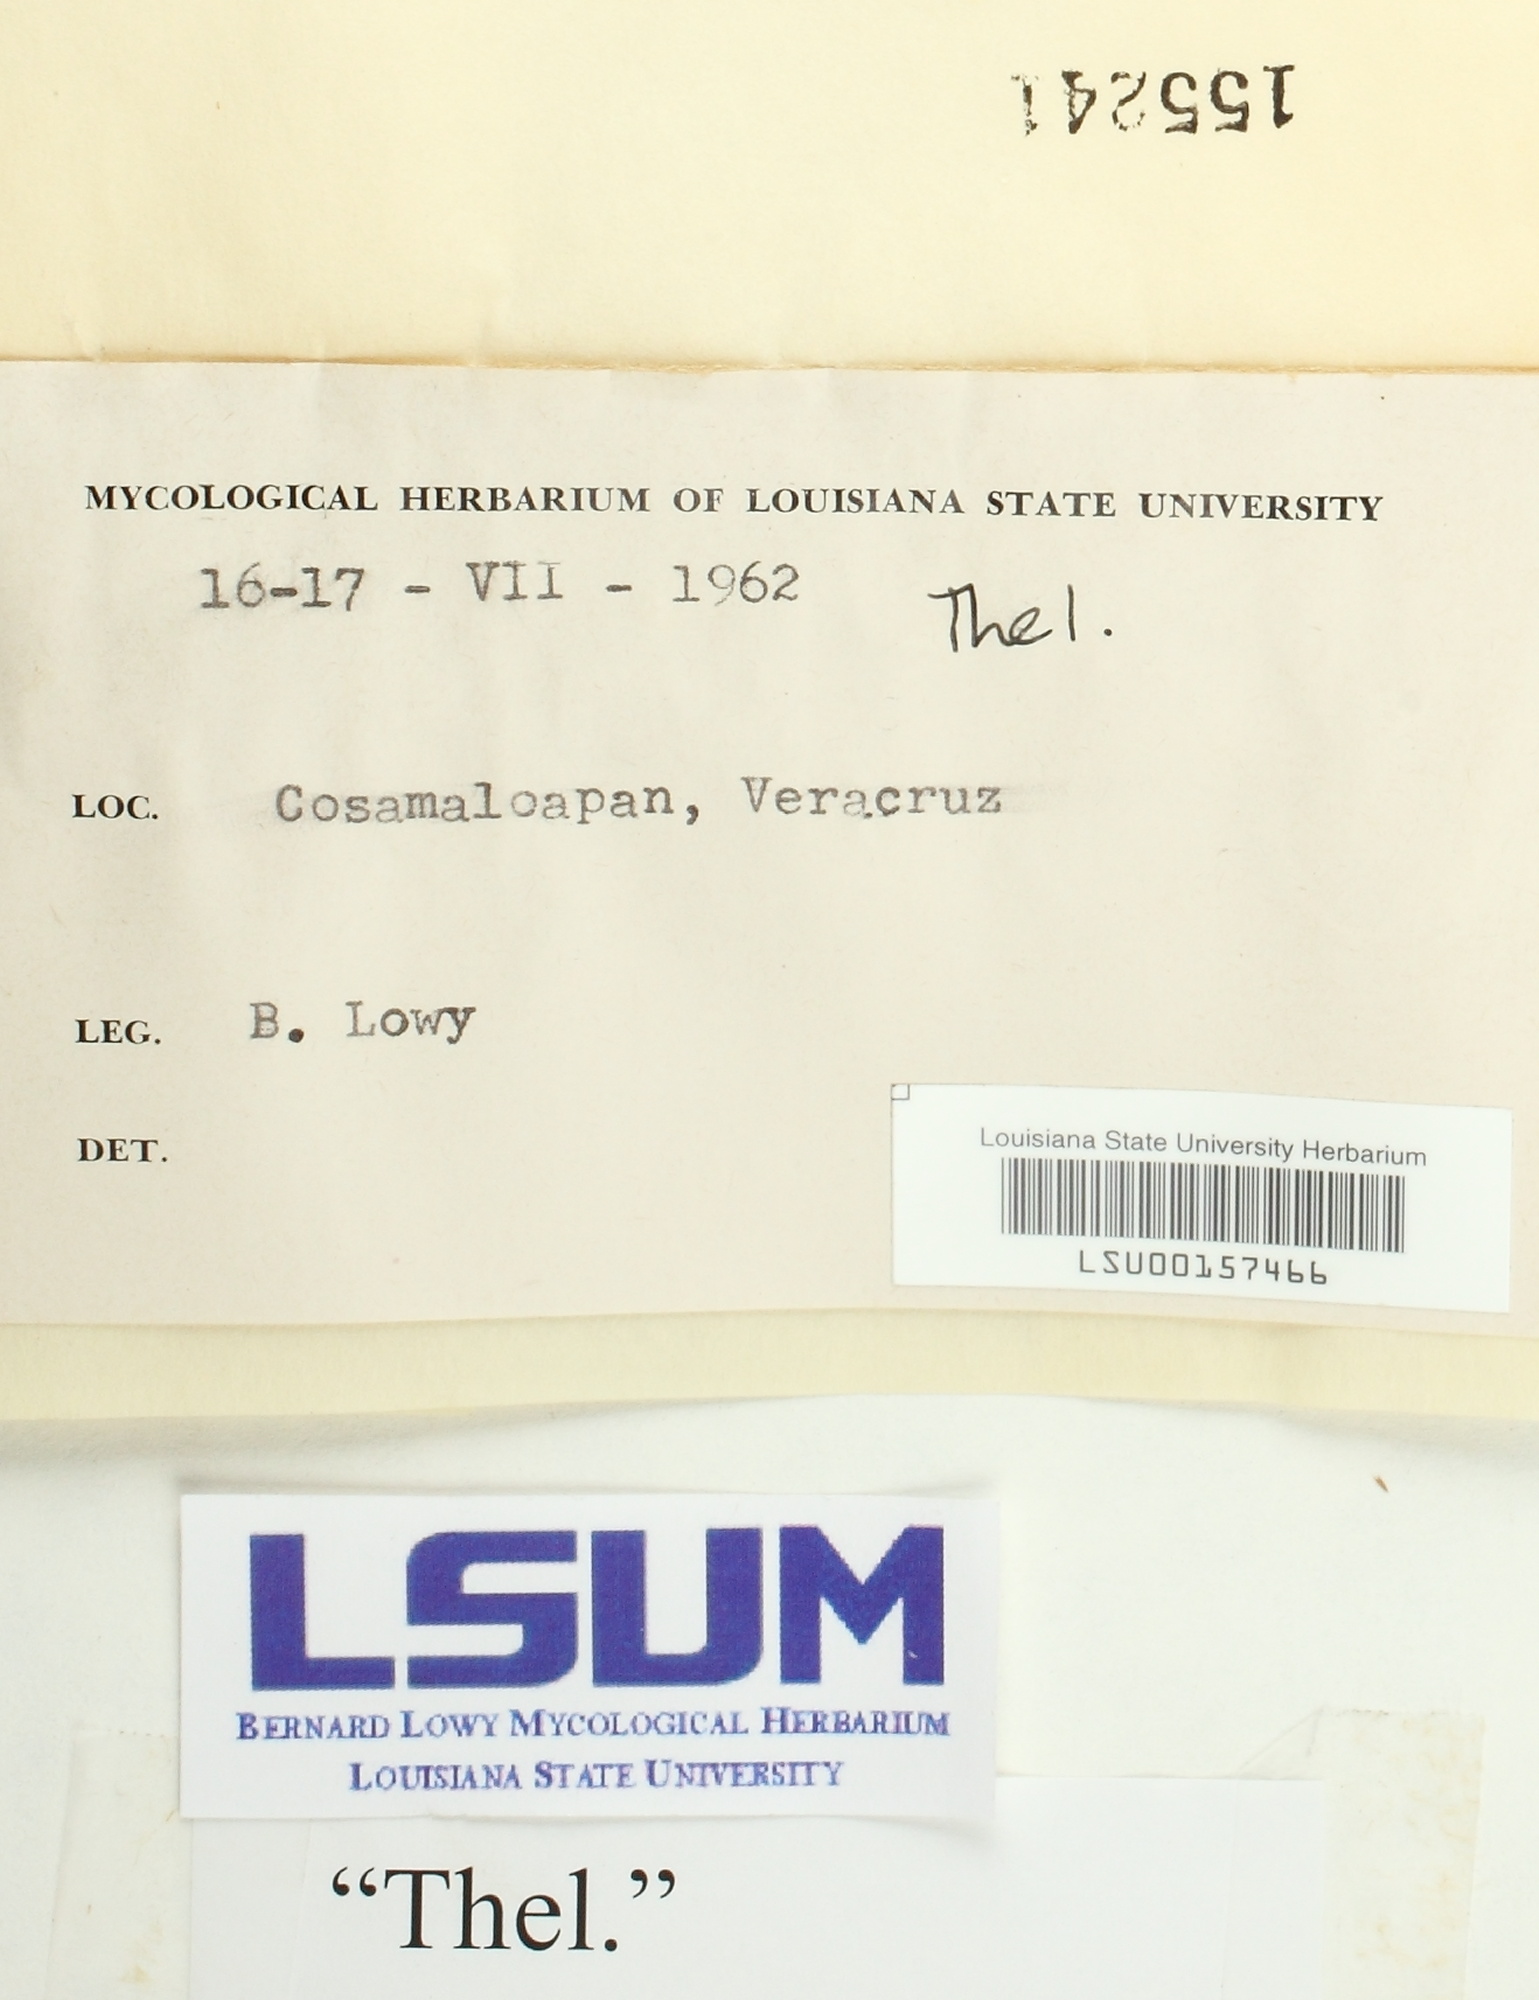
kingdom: Fungi
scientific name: Fungi
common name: Fungi
